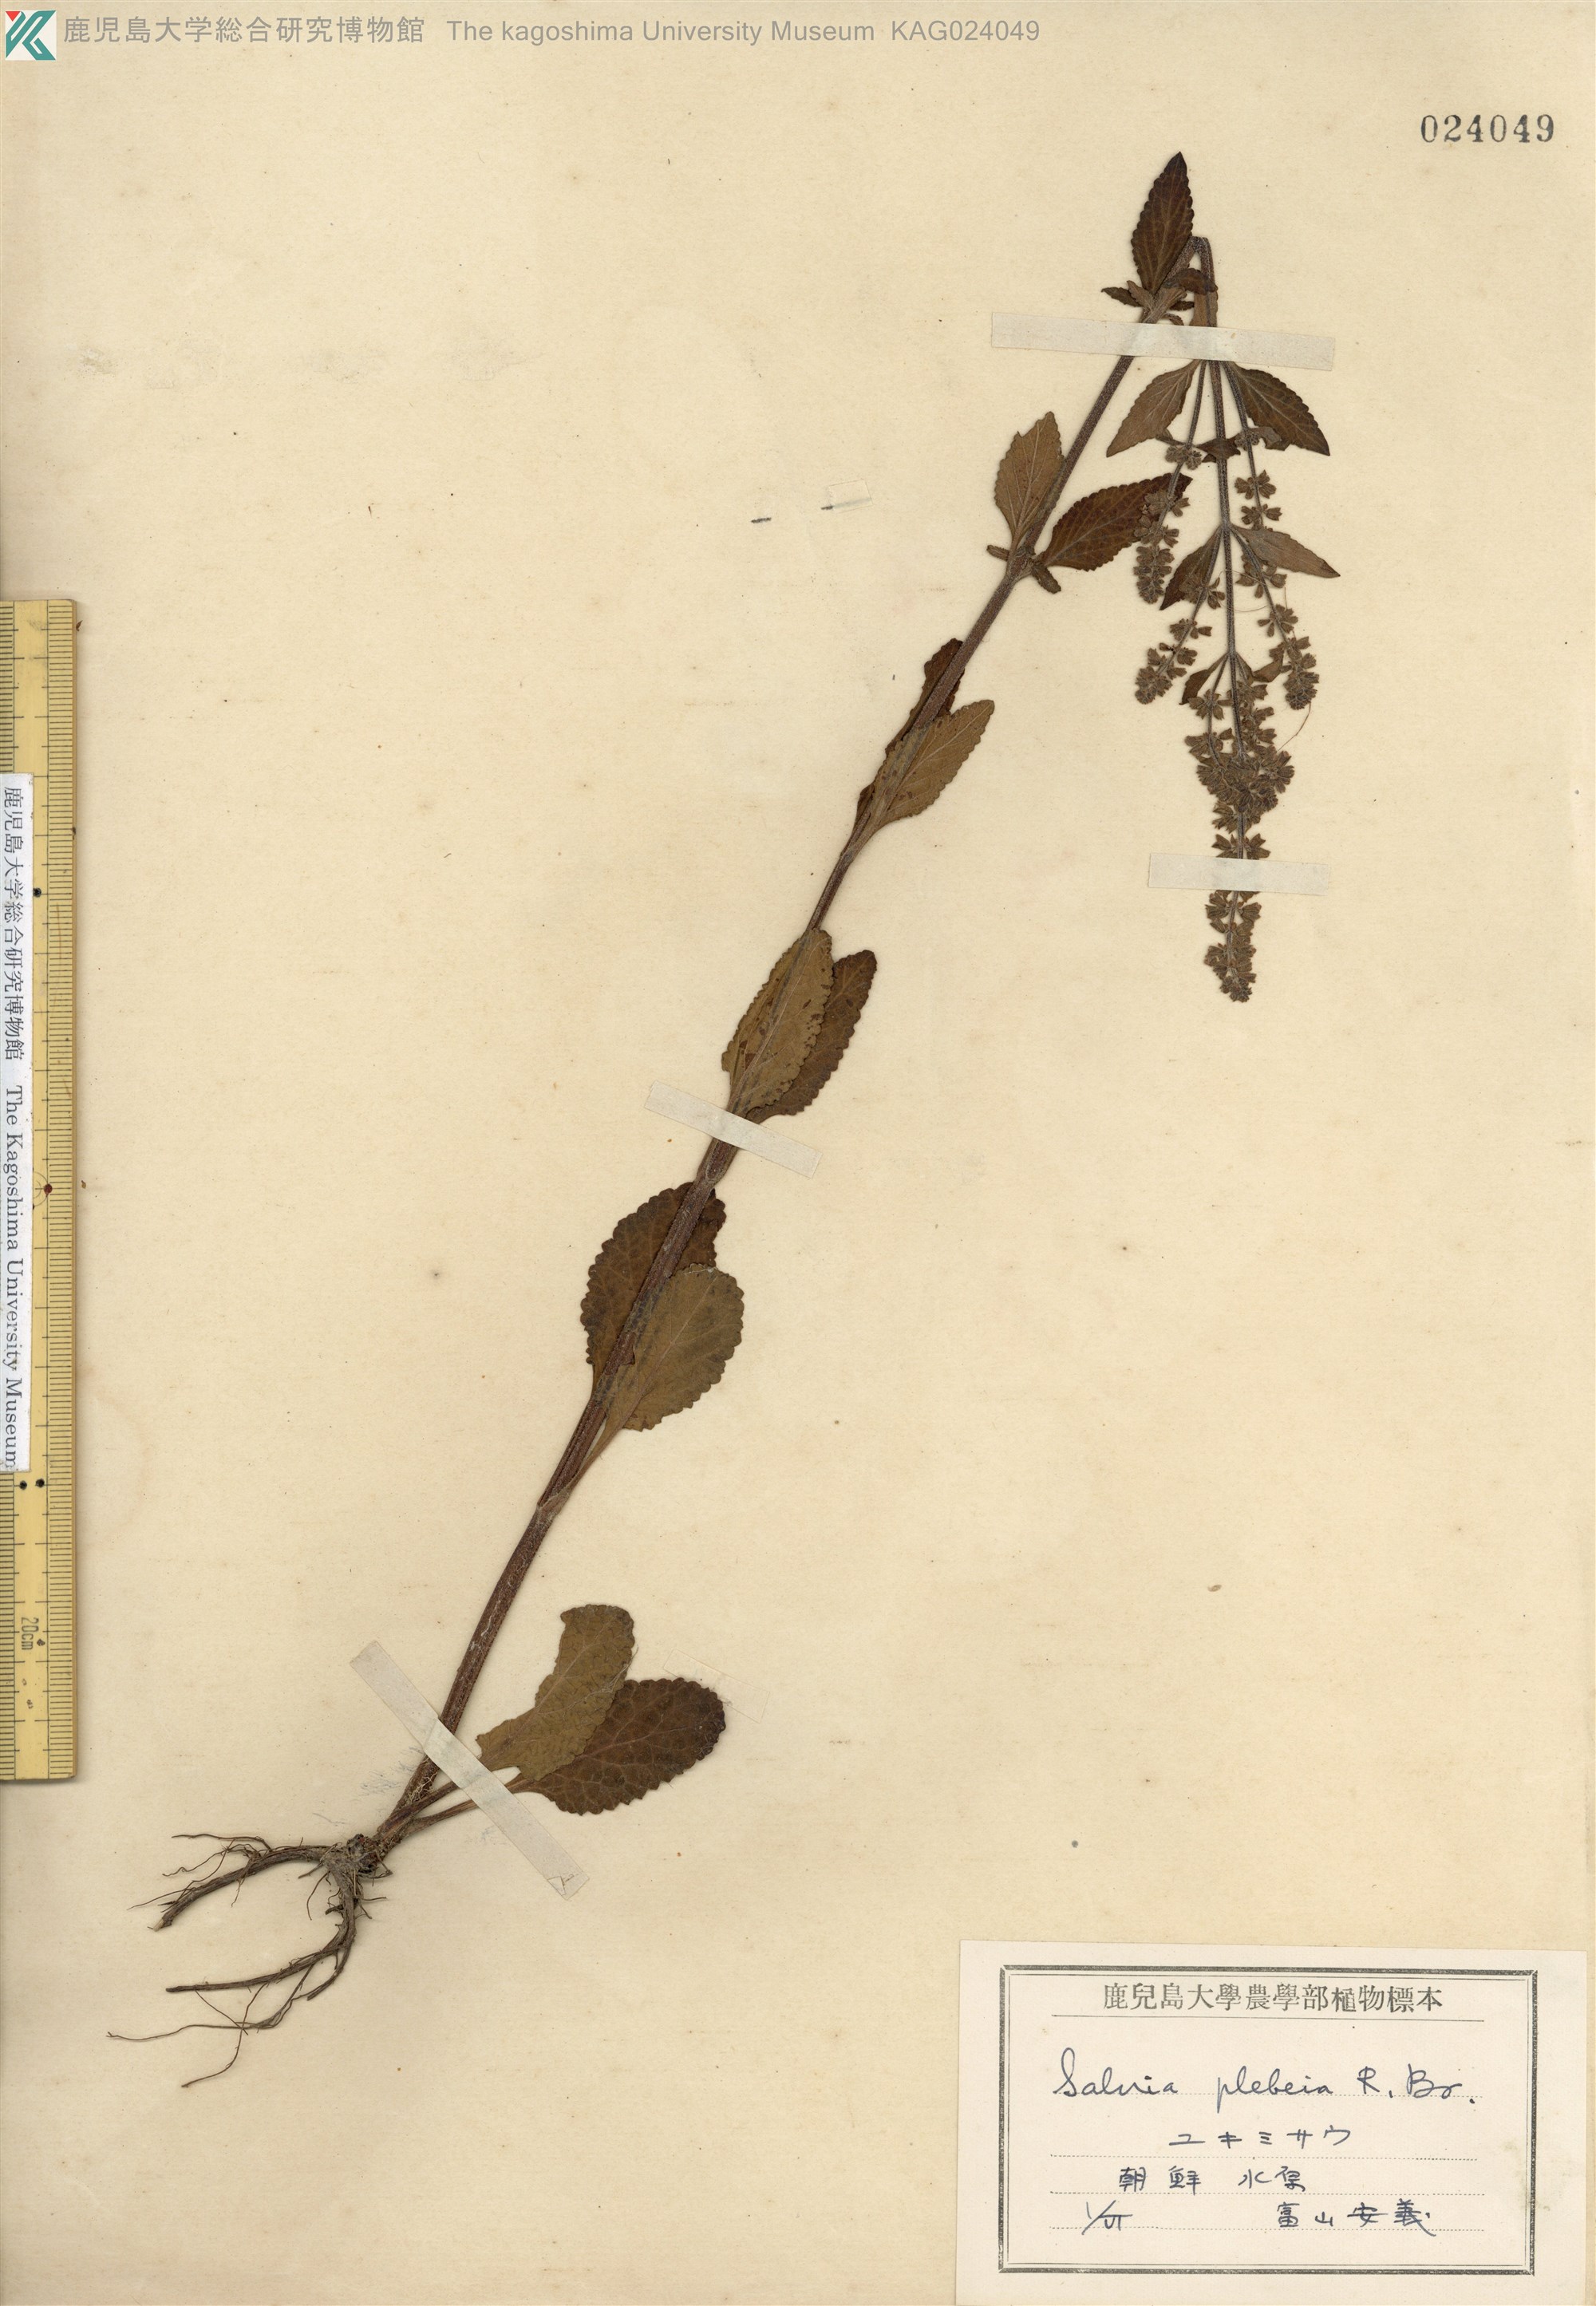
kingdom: Plantae
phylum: Tracheophyta
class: Magnoliopsida
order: Lamiales
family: Lamiaceae
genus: Salvia
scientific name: Salvia plebeia
